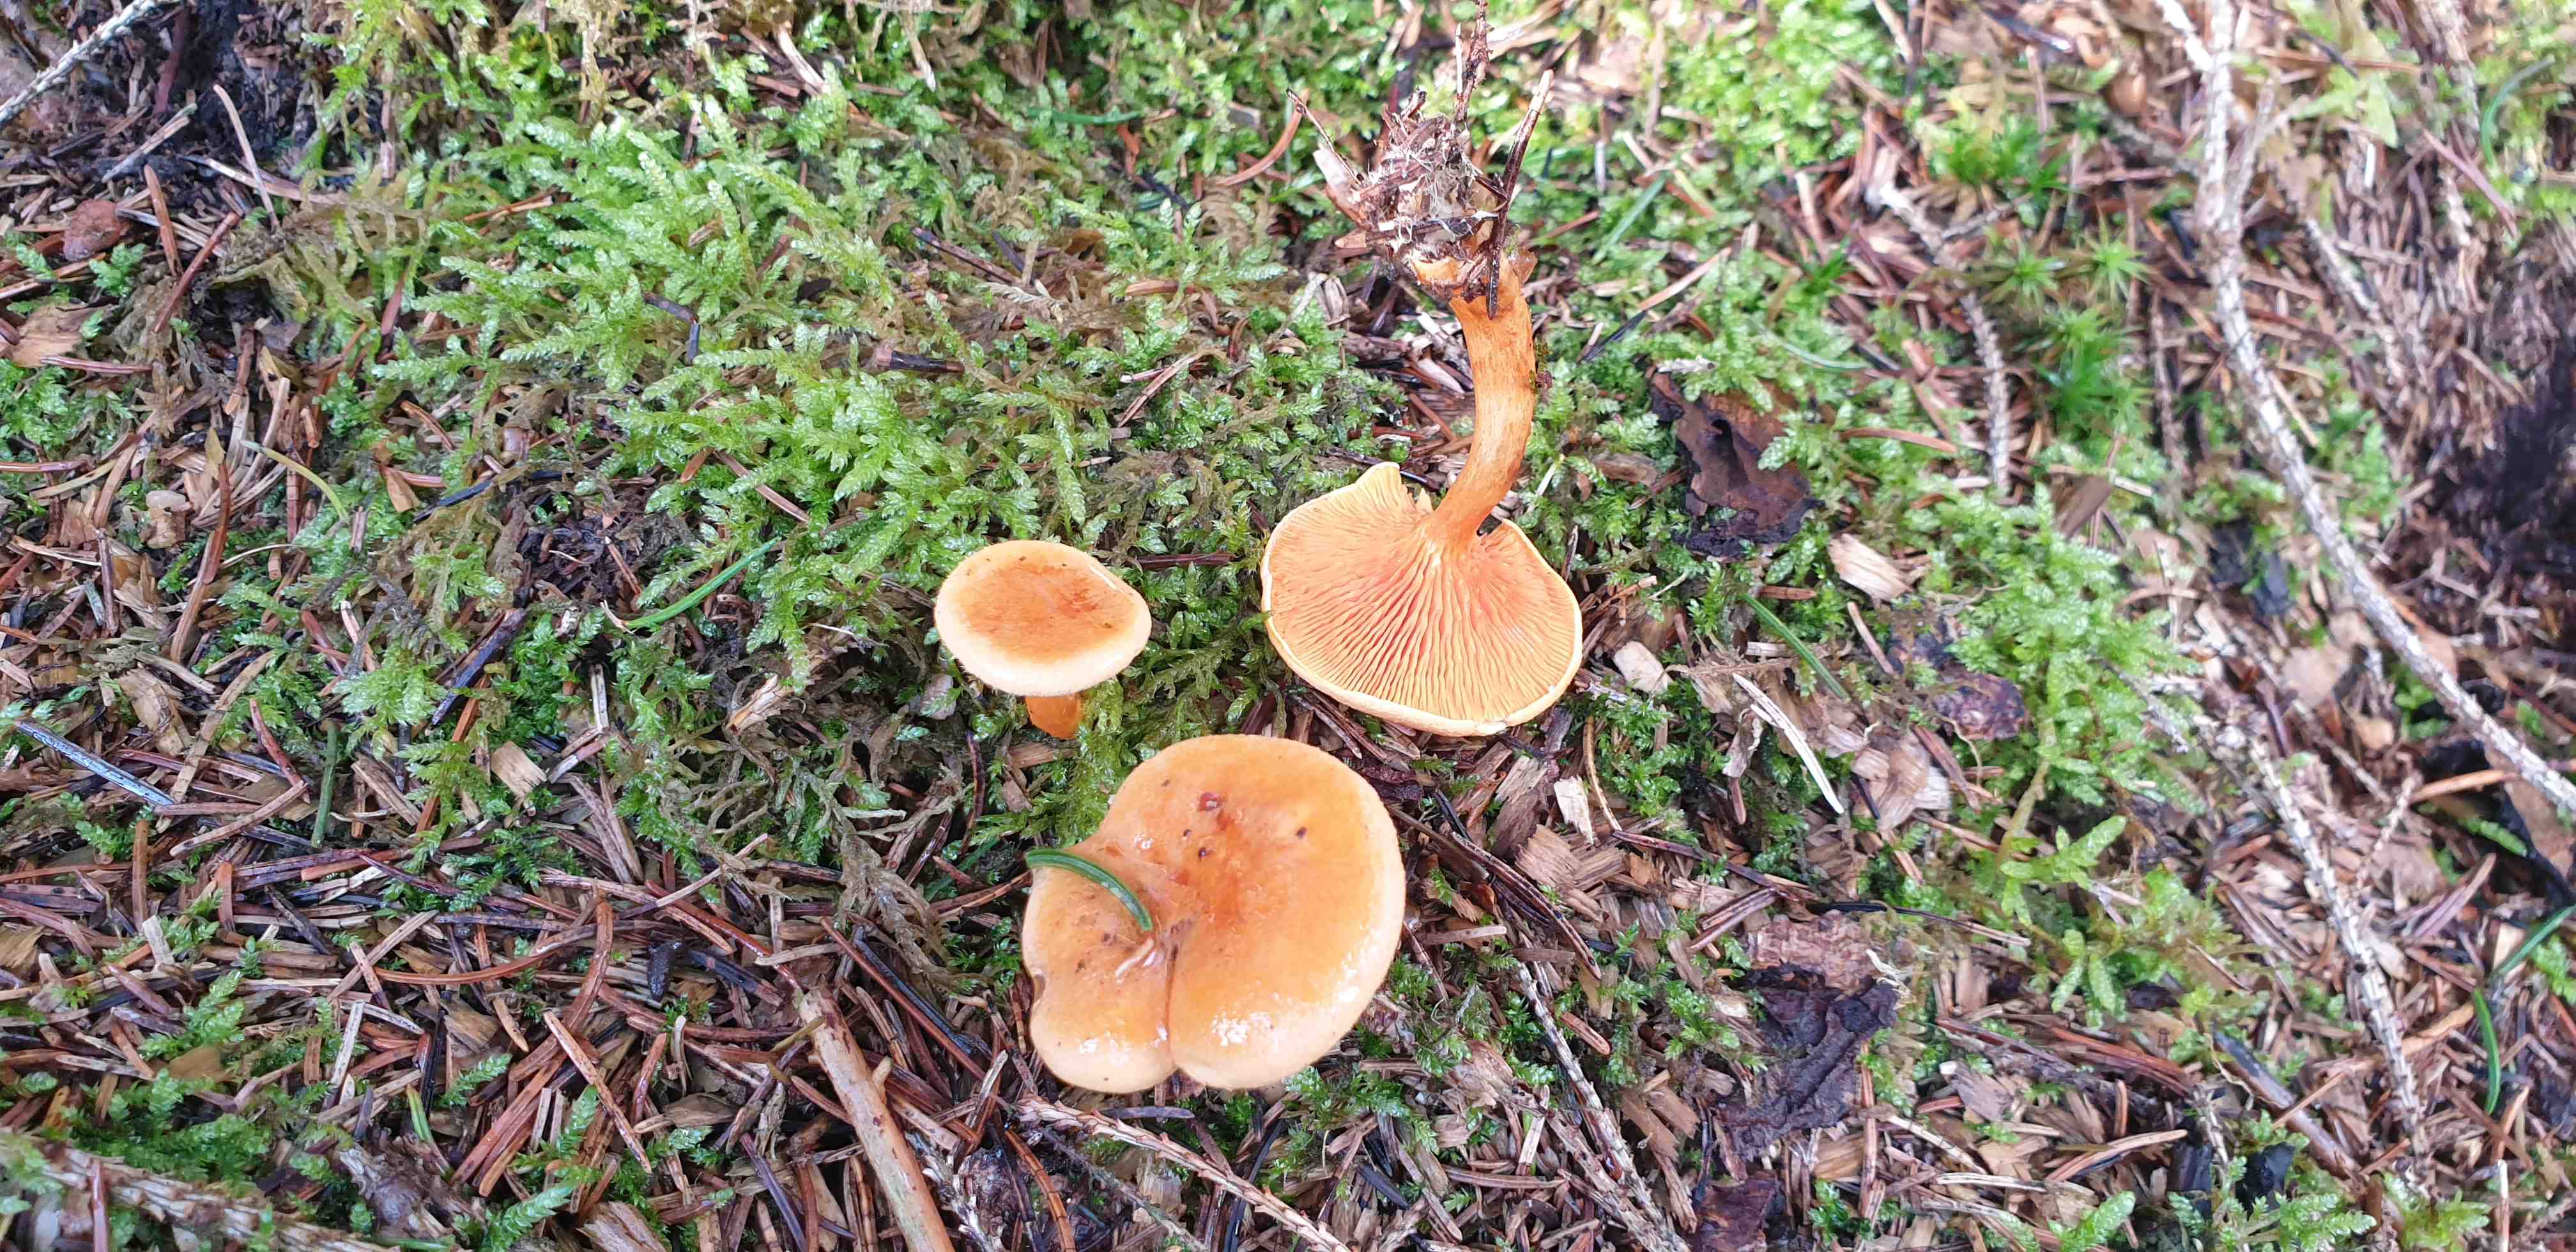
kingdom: Fungi
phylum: Basidiomycota
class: Agaricomycetes
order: Boletales
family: Hygrophoropsidaceae
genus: Hygrophoropsis
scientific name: Hygrophoropsis aurantiaca
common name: almindelig orangekantarel
